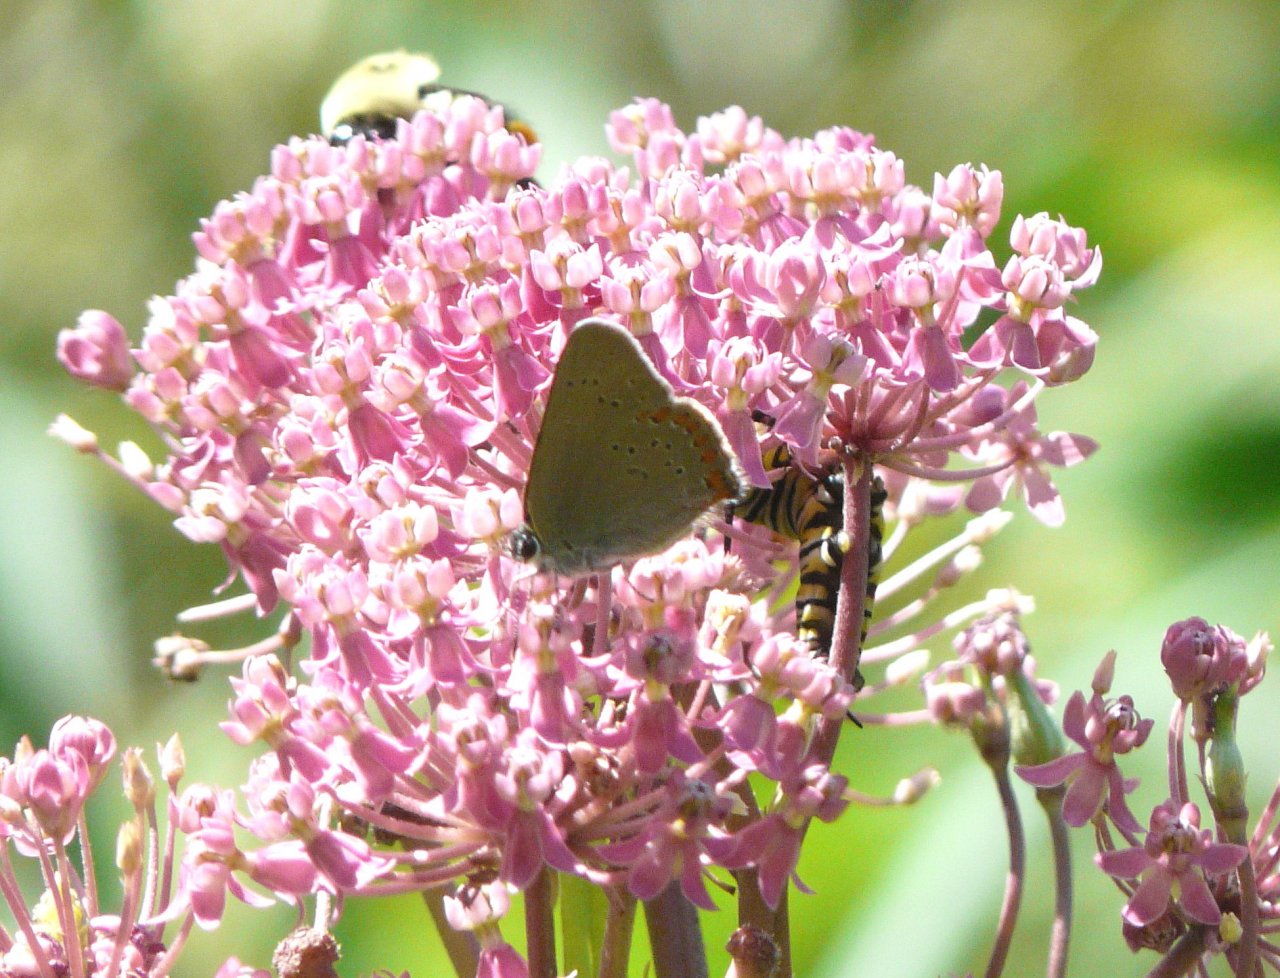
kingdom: Animalia
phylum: Arthropoda
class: Insecta
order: Lepidoptera
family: Lycaenidae
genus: Harkenclenus
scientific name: Harkenclenus titus
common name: Coral Hairstreak
